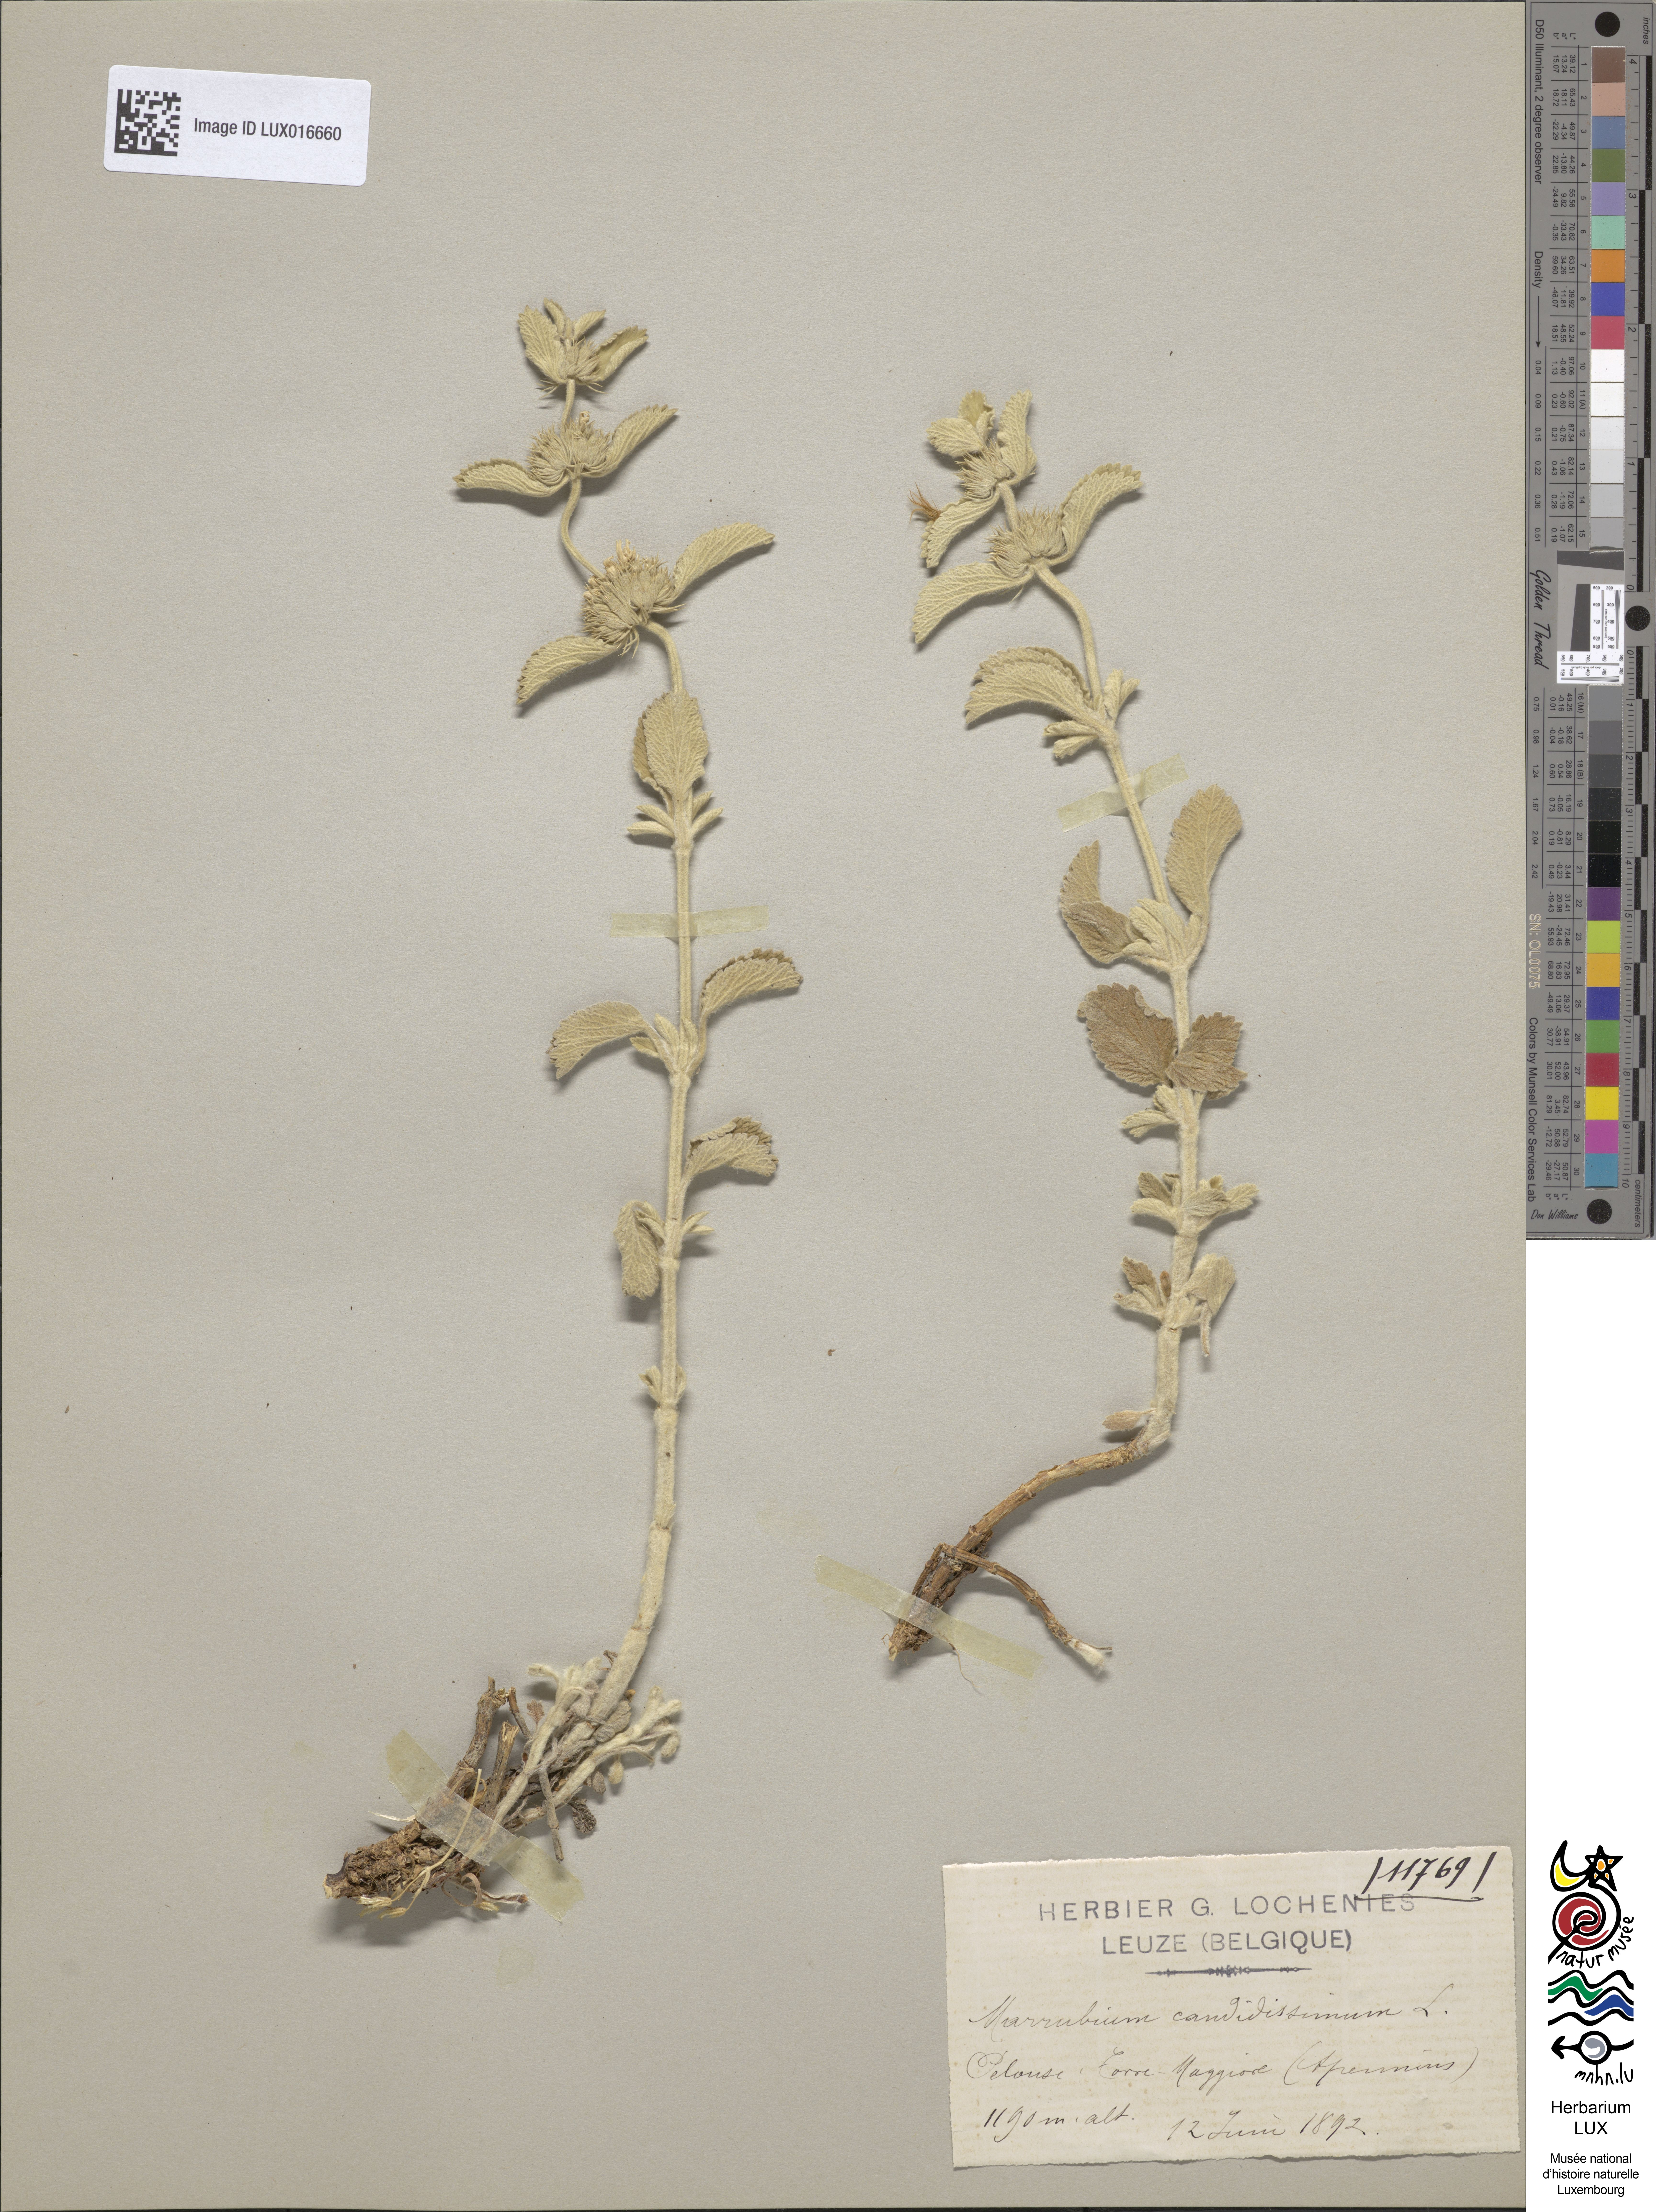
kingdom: Plantae
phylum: Tracheophyta
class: Magnoliopsida
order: Lamiales
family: Lamiaceae
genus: Marrubium
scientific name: Marrubium incanum
